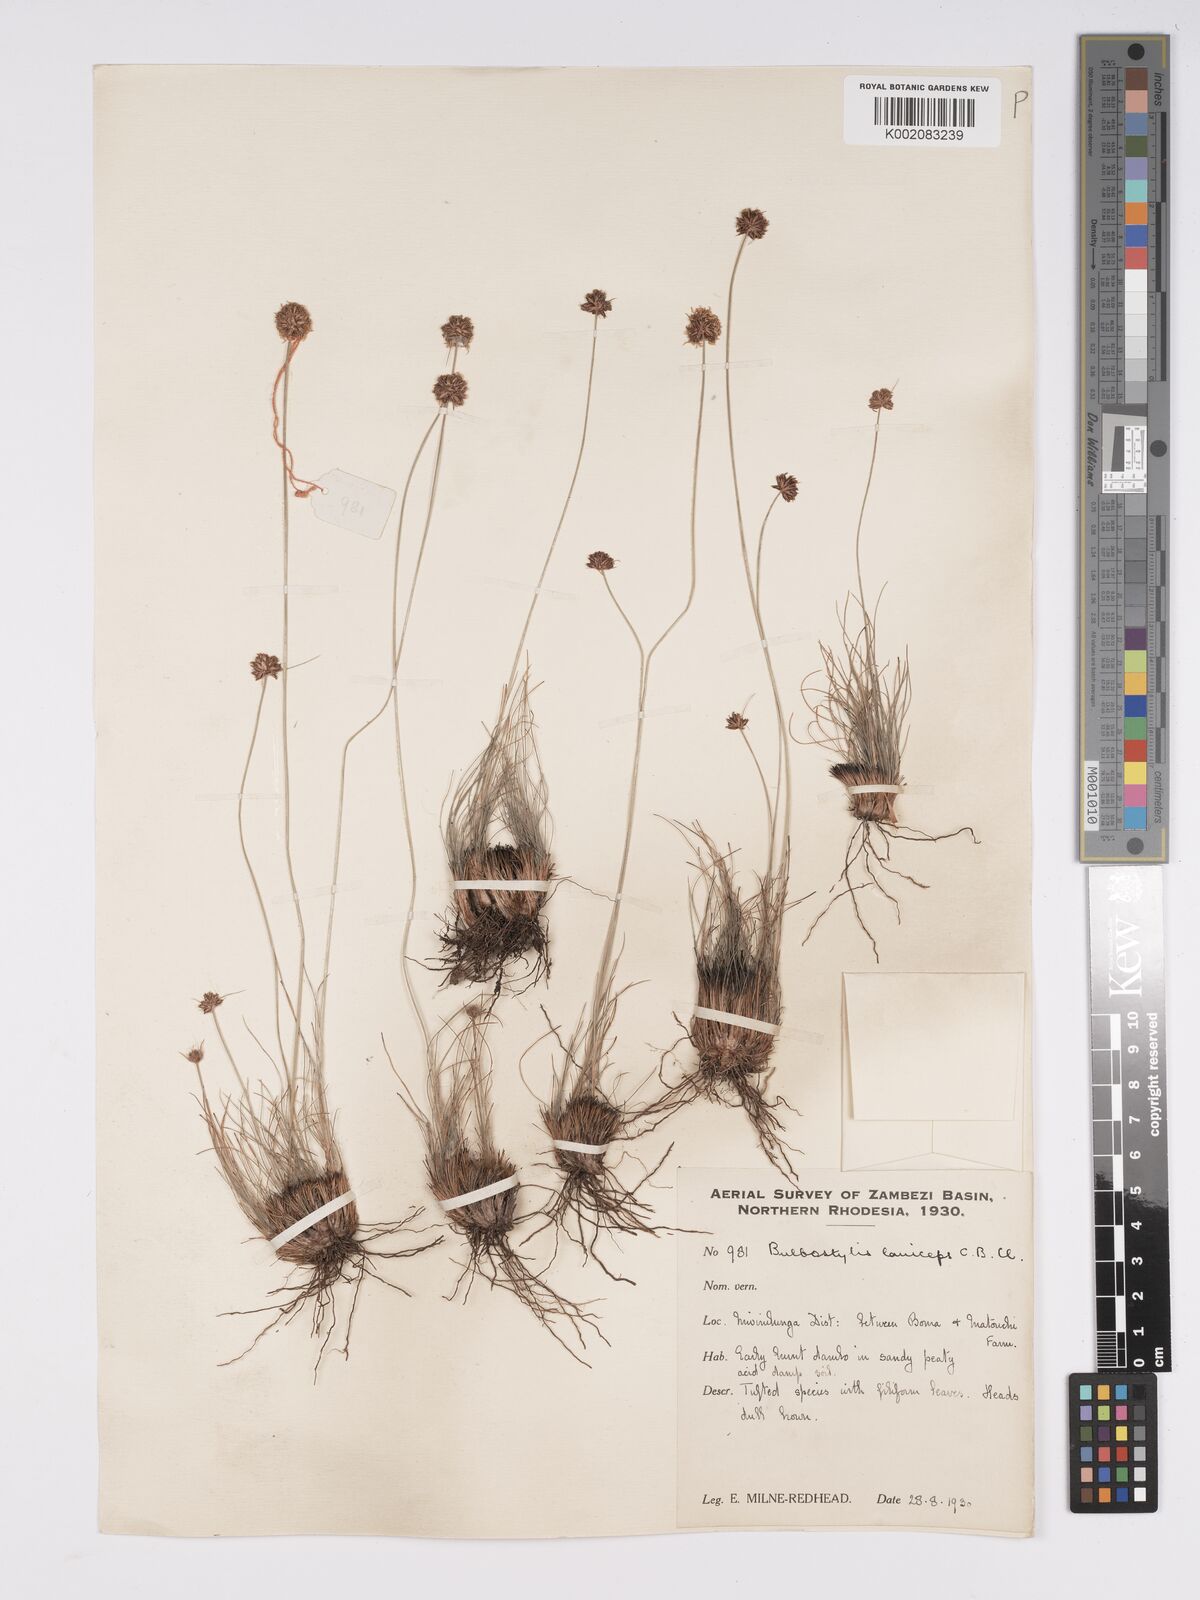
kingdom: Plantae
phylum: Tracheophyta
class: Liliopsida
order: Poales
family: Cyperaceae
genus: Bulbostylis
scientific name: Bulbostylis laniceps
